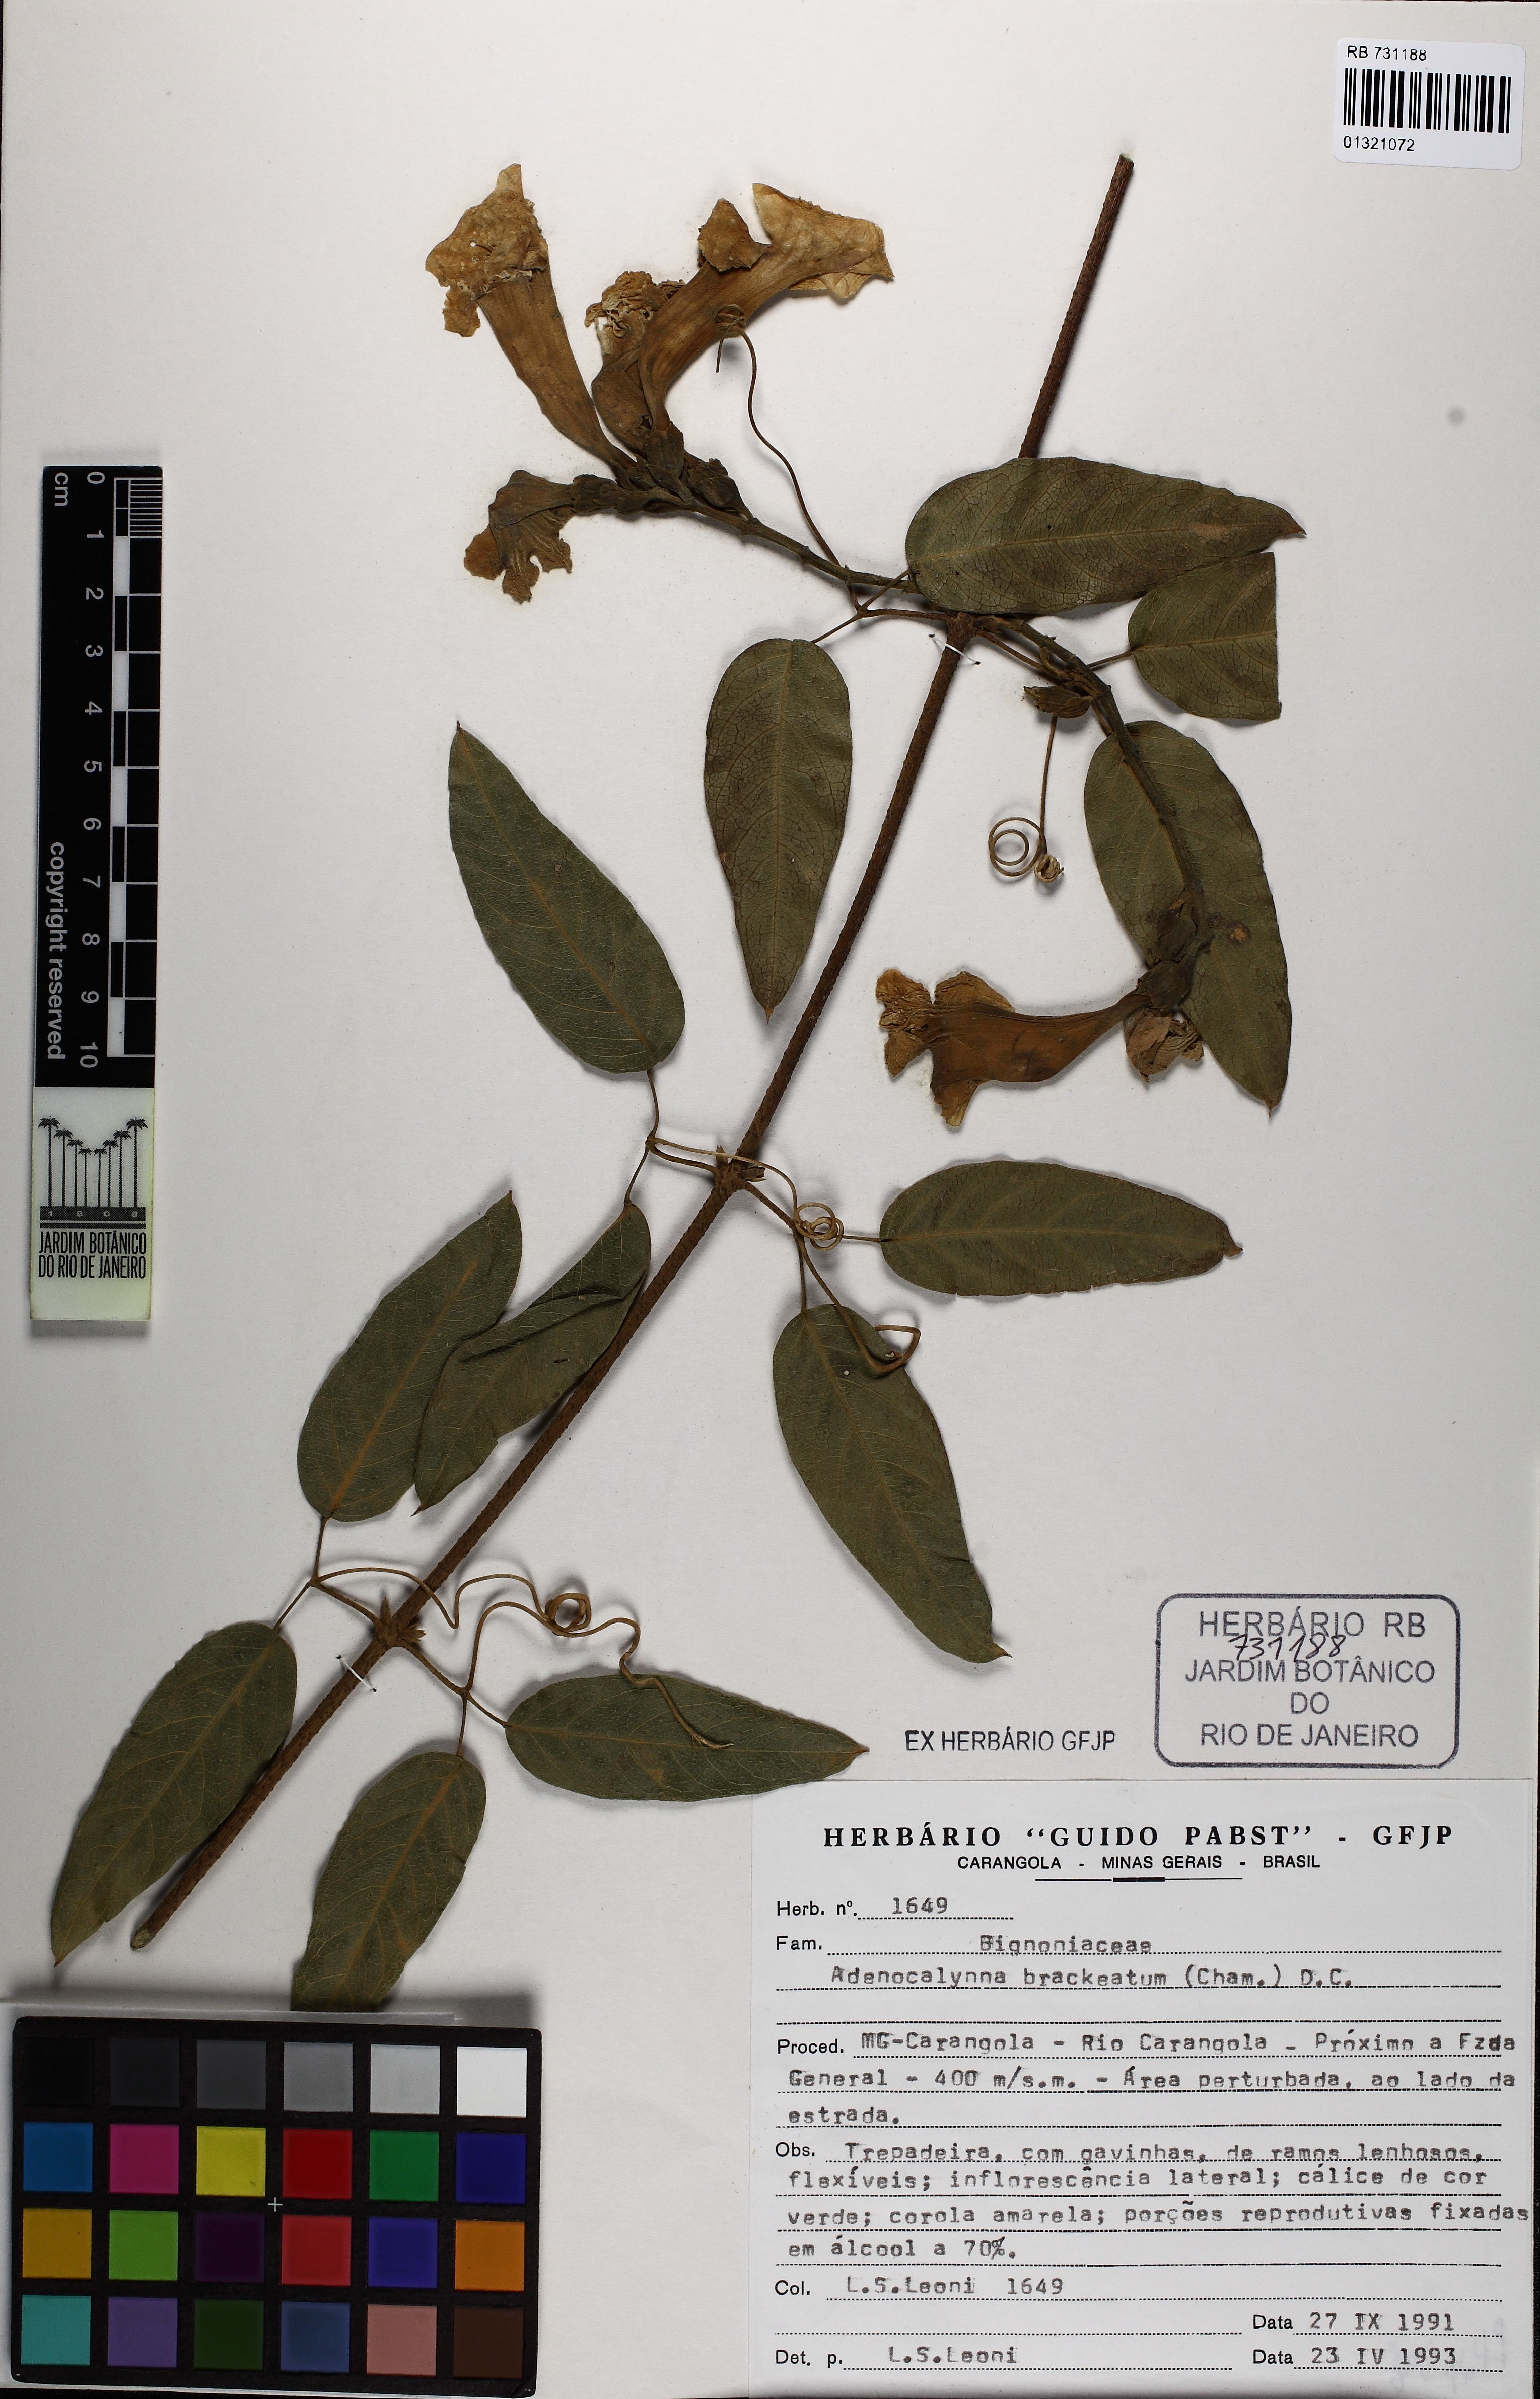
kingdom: Plantae
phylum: Tracheophyta
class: Magnoliopsida
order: Lamiales
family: Bignoniaceae
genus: Adenocalymma
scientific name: Adenocalymma bracteatum
